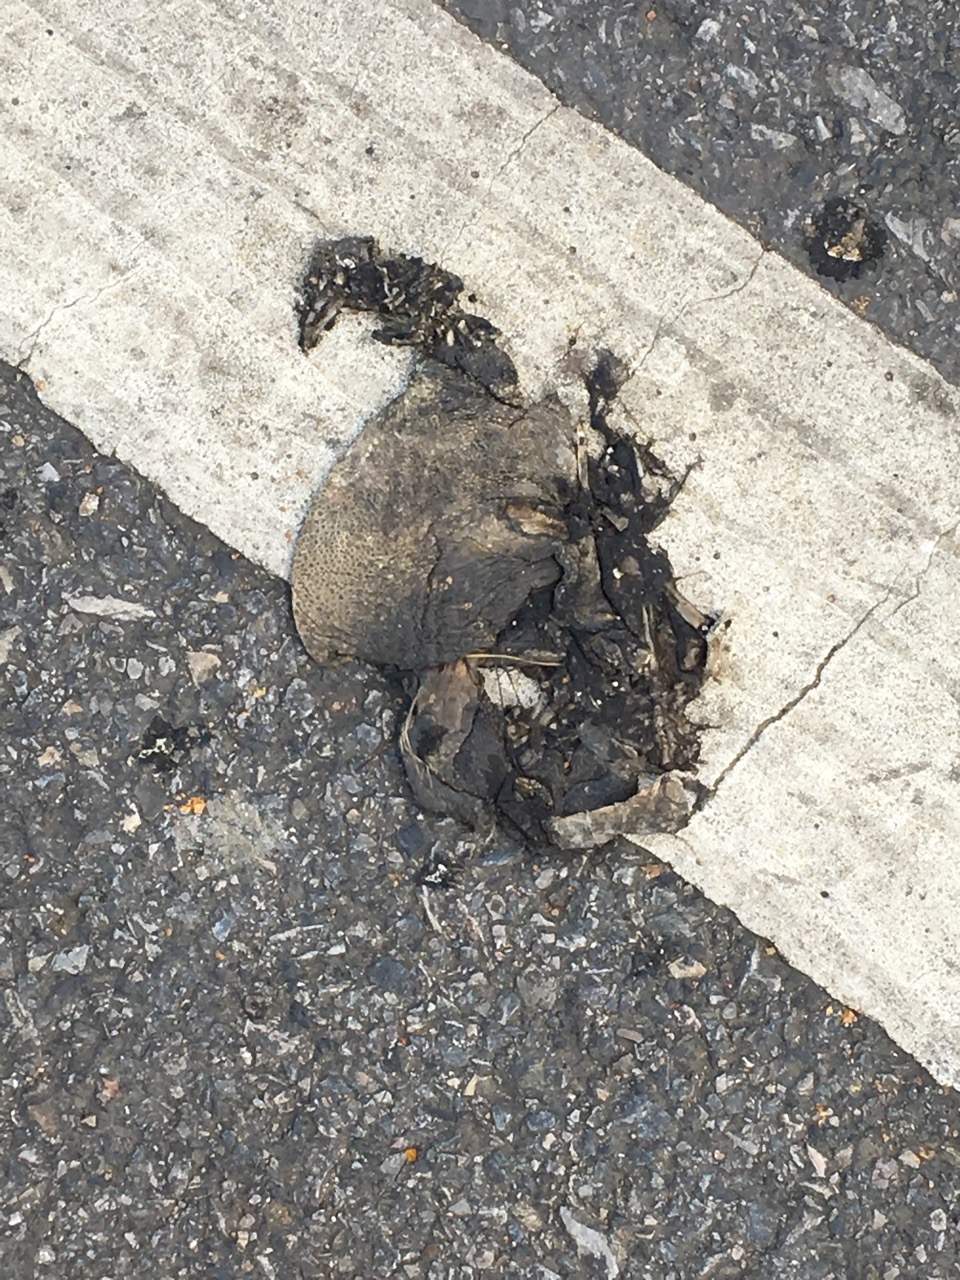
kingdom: Animalia
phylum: Chordata
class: Amphibia
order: Anura
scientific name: Anura
